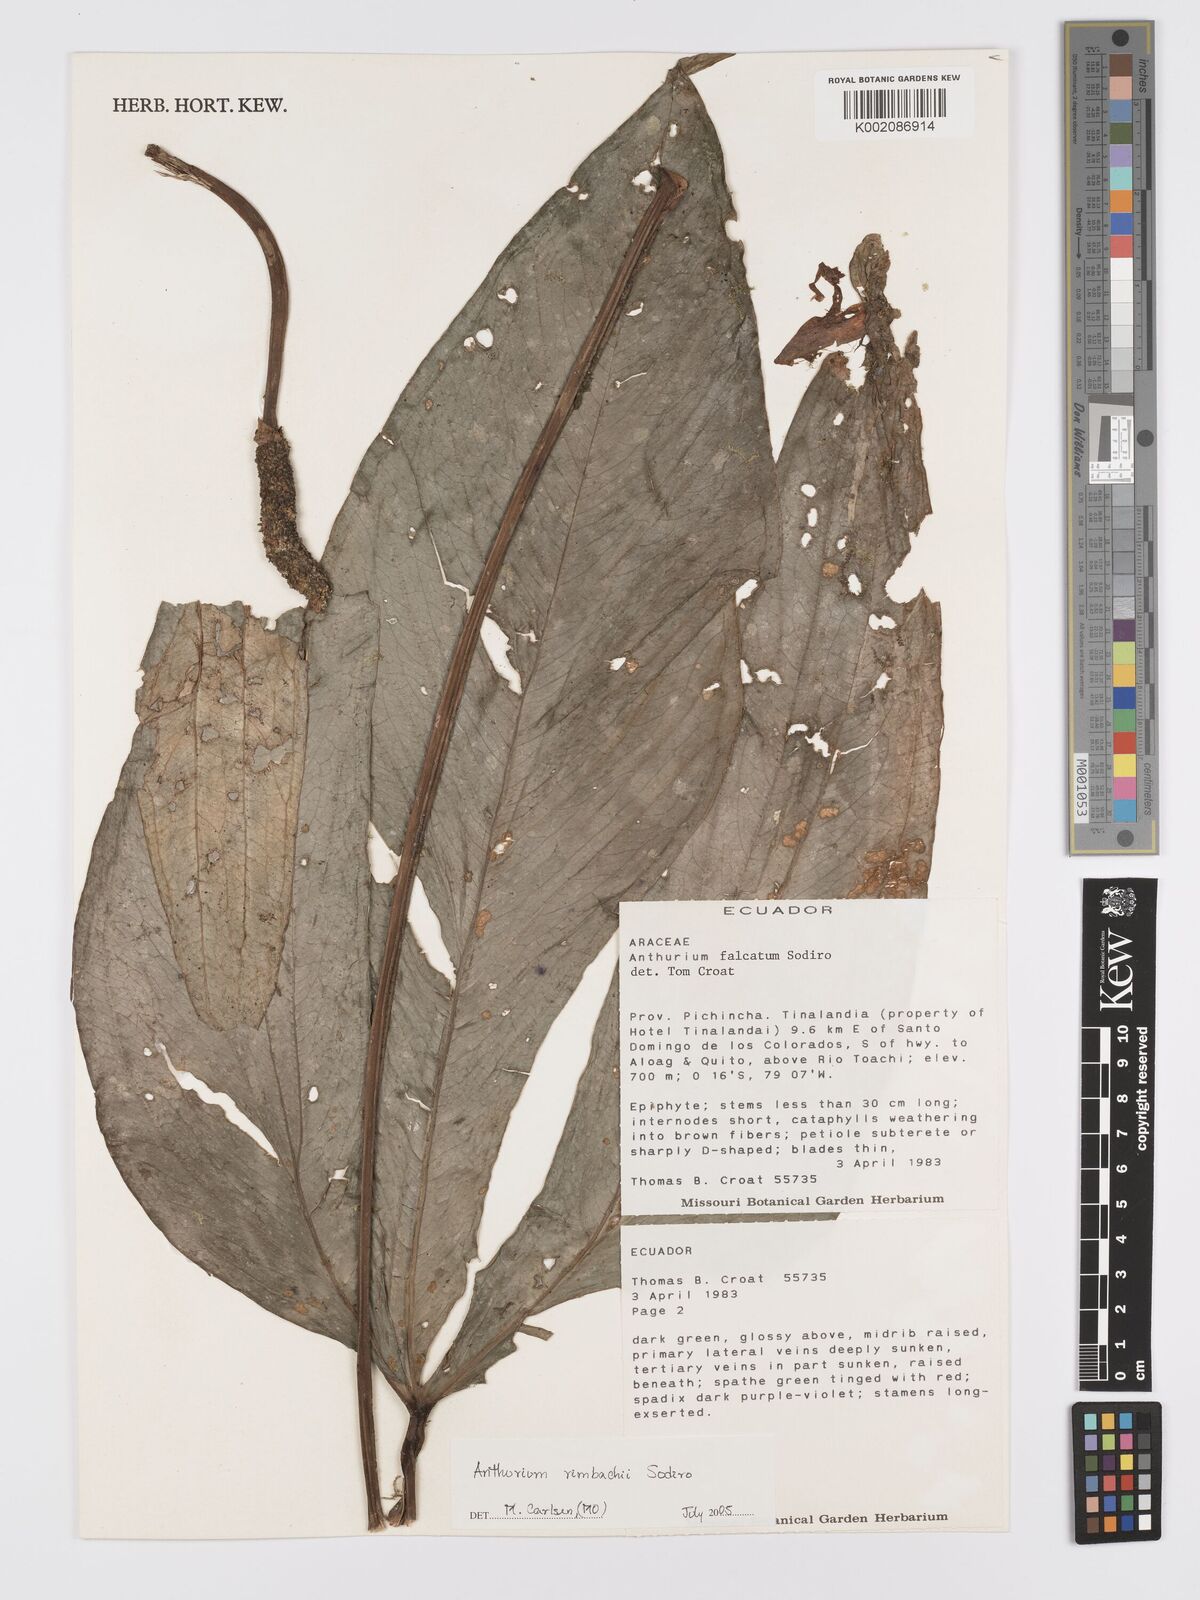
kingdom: Plantae
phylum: Tracheophyta
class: Liliopsida
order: Alismatales
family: Araceae
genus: Anthurium
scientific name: Anthurium rimbachii
